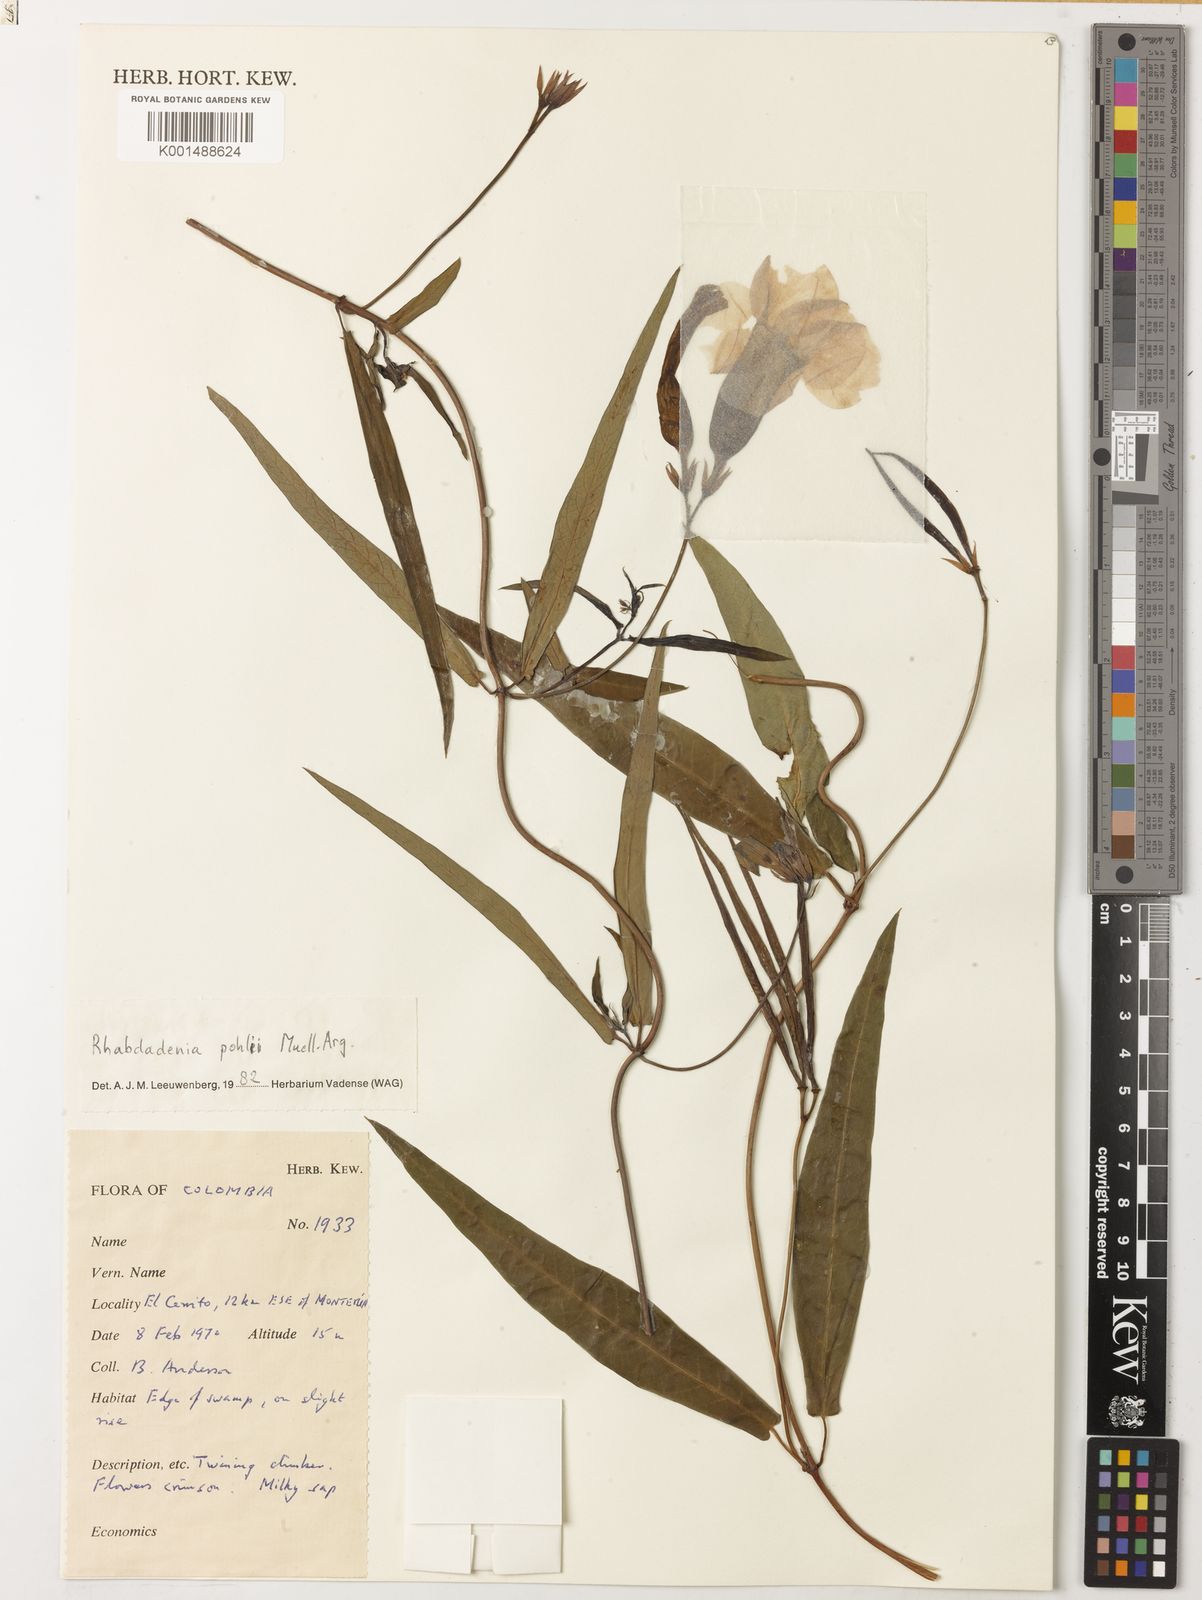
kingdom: Plantae
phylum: Tracheophyta
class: Magnoliopsida
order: Gentianales
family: Apocynaceae
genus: Rhabdadenia
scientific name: Rhabdadenia madida
